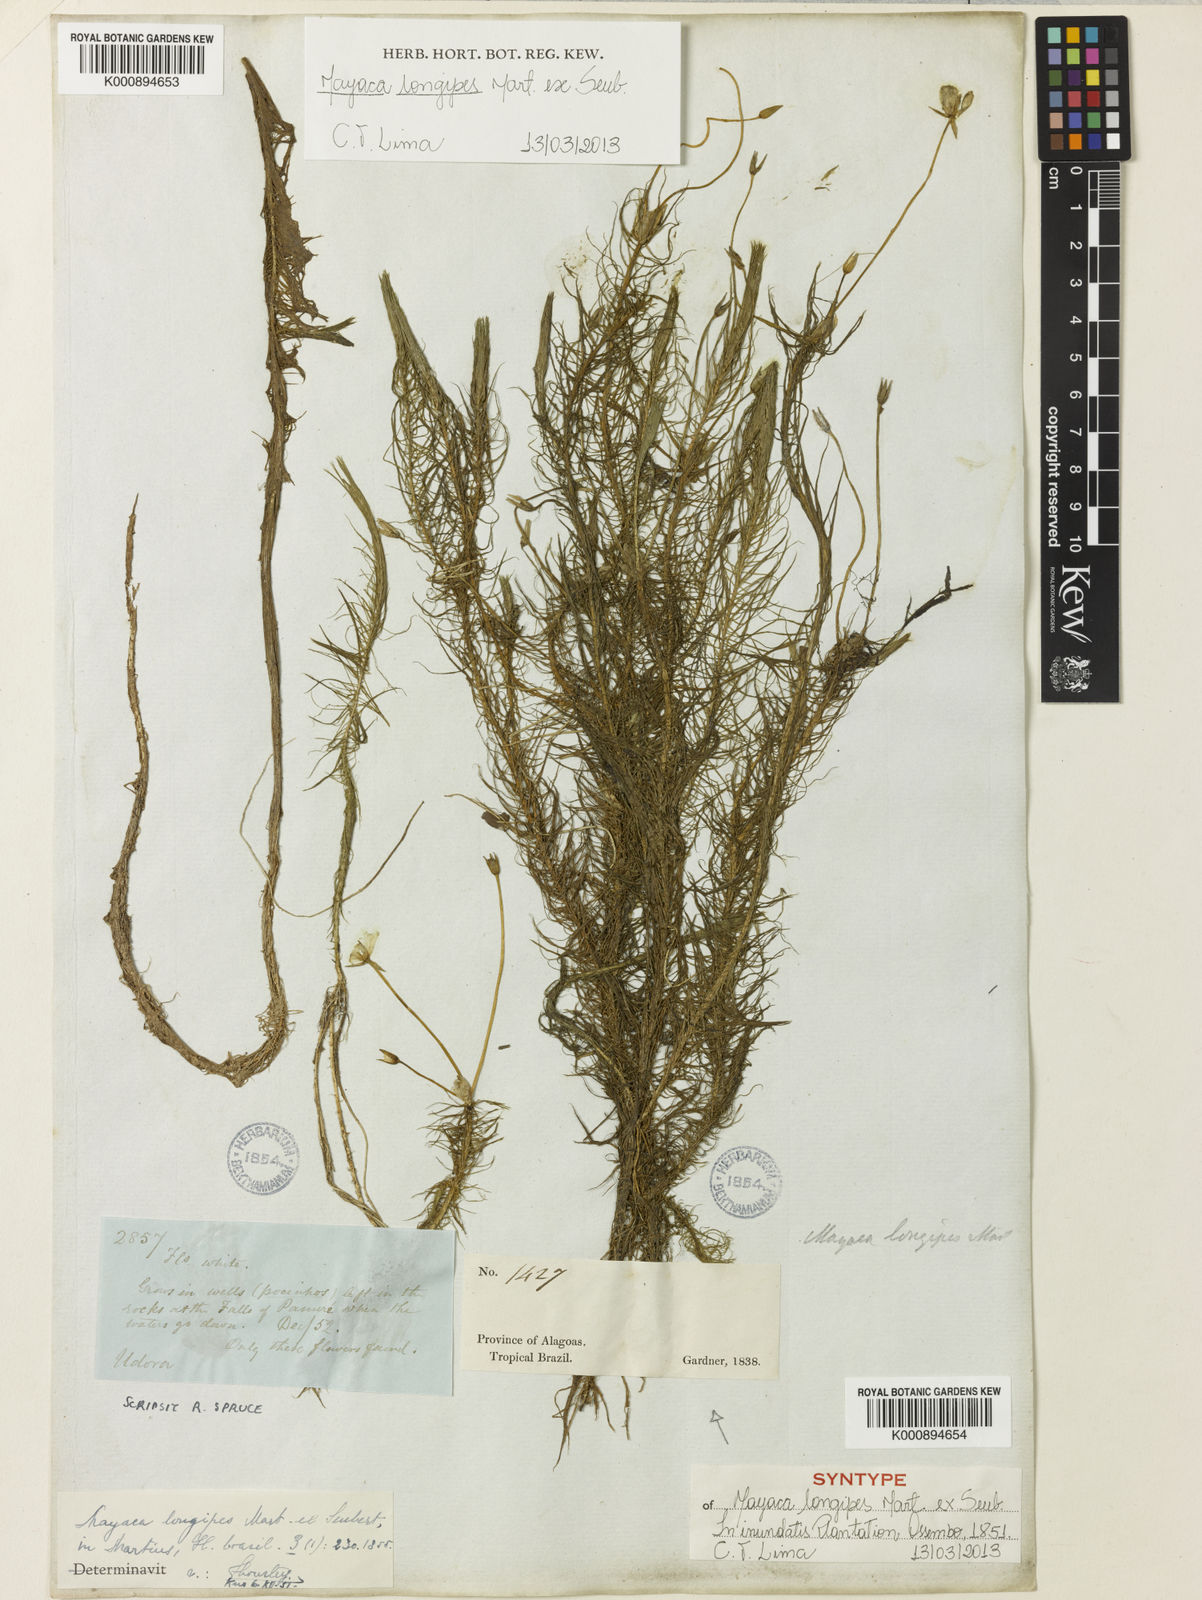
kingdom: Plantae
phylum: Tracheophyta
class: Liliopsida
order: Poales
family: Mayacaceae
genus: Mayaca
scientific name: Mayaca longipes
